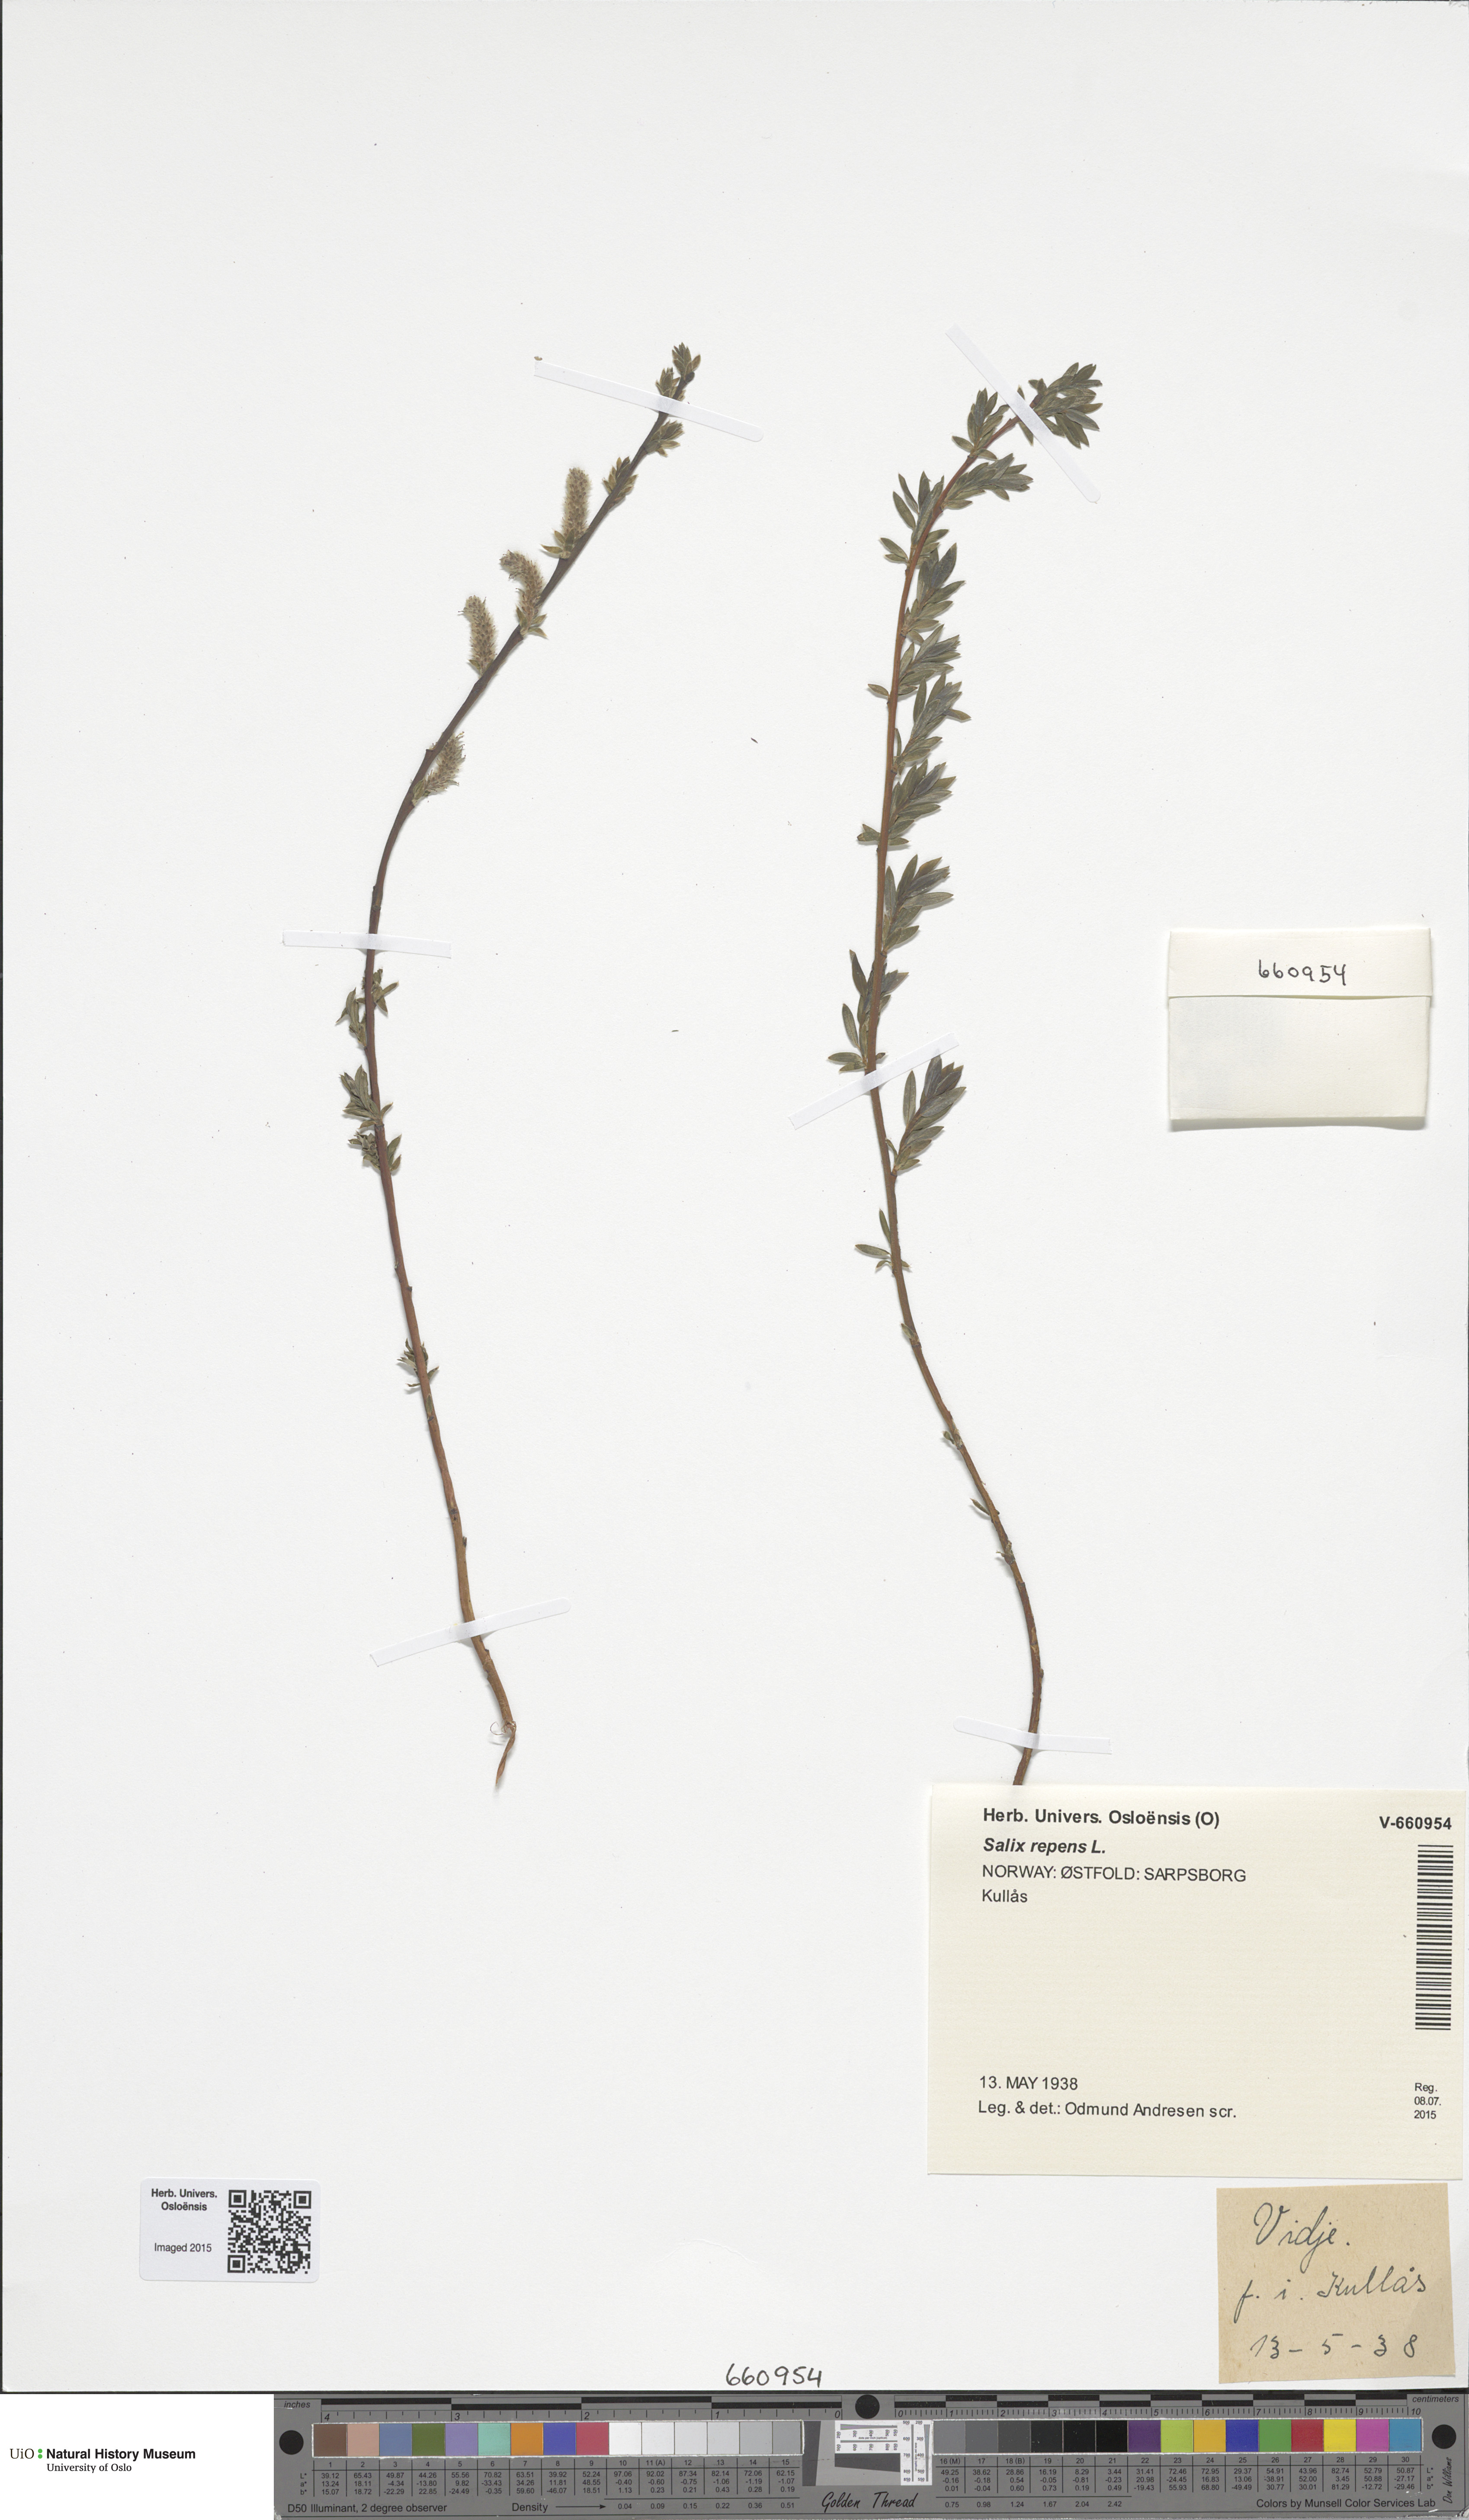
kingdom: Plantae
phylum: Tracheophyta
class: Magnoliopsida
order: Malpighiales
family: Salicaceae
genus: Salix
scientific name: Salix repens
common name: Creeping willow
